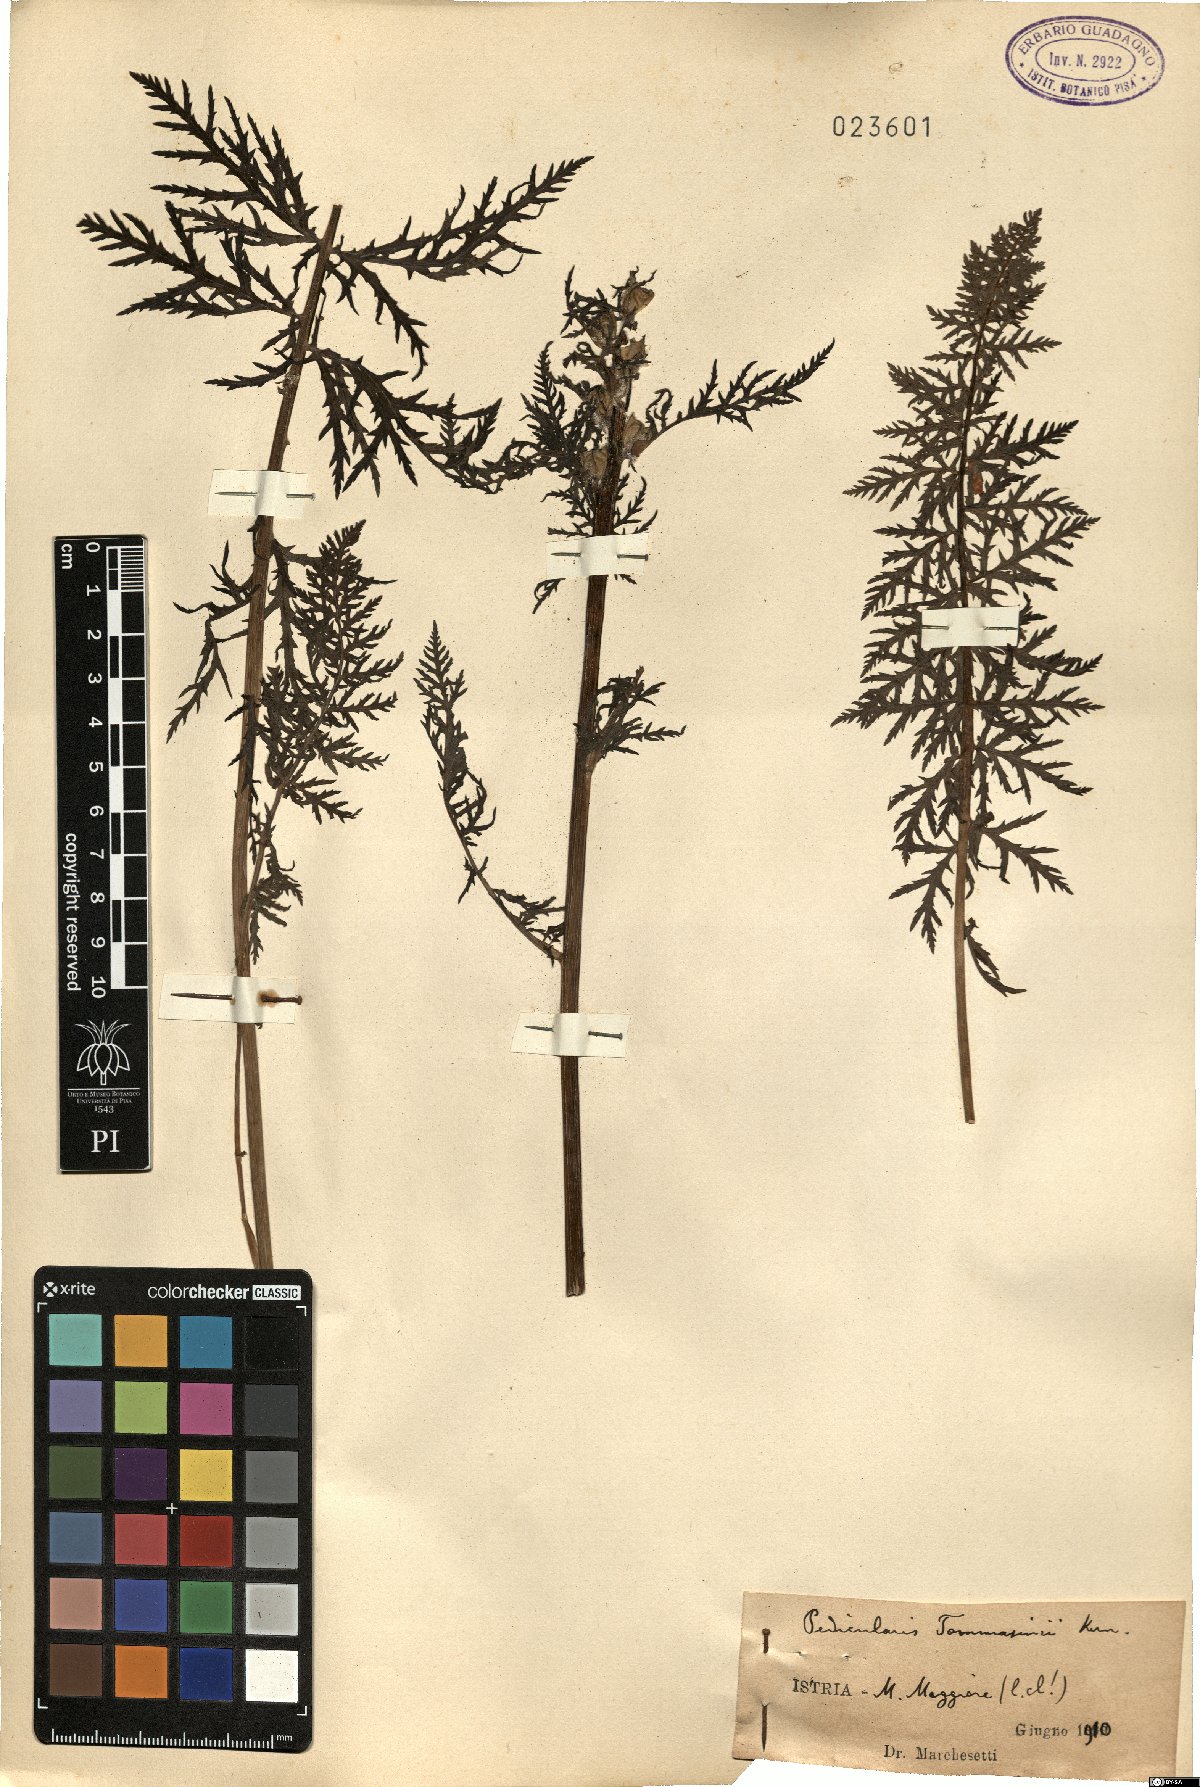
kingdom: Plantae
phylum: Tracheophyta
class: Magnoliopsida
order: Lamiales
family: Orobanchaceae
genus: Pedicularis
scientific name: Pedicularis friderici-augusti
